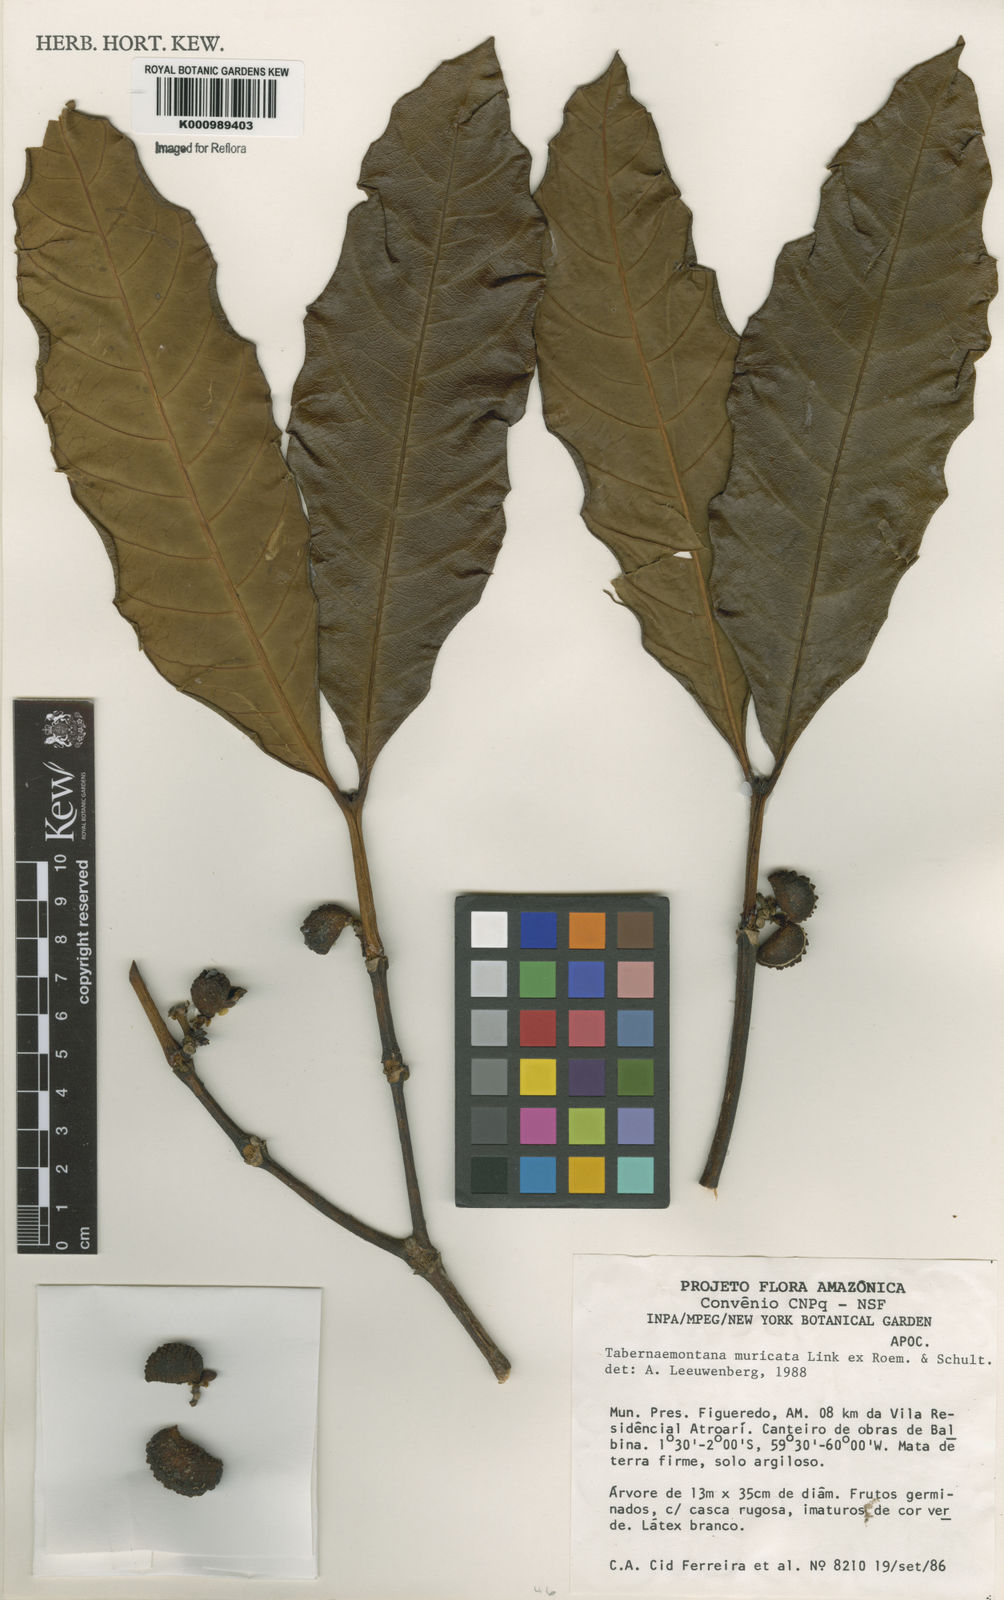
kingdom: Plantae
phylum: Tracheophyta
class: Magnoliopsida
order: Gentianales
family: Apocynaceae
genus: Tabernaemontana
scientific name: Tabernaemontana muricata
